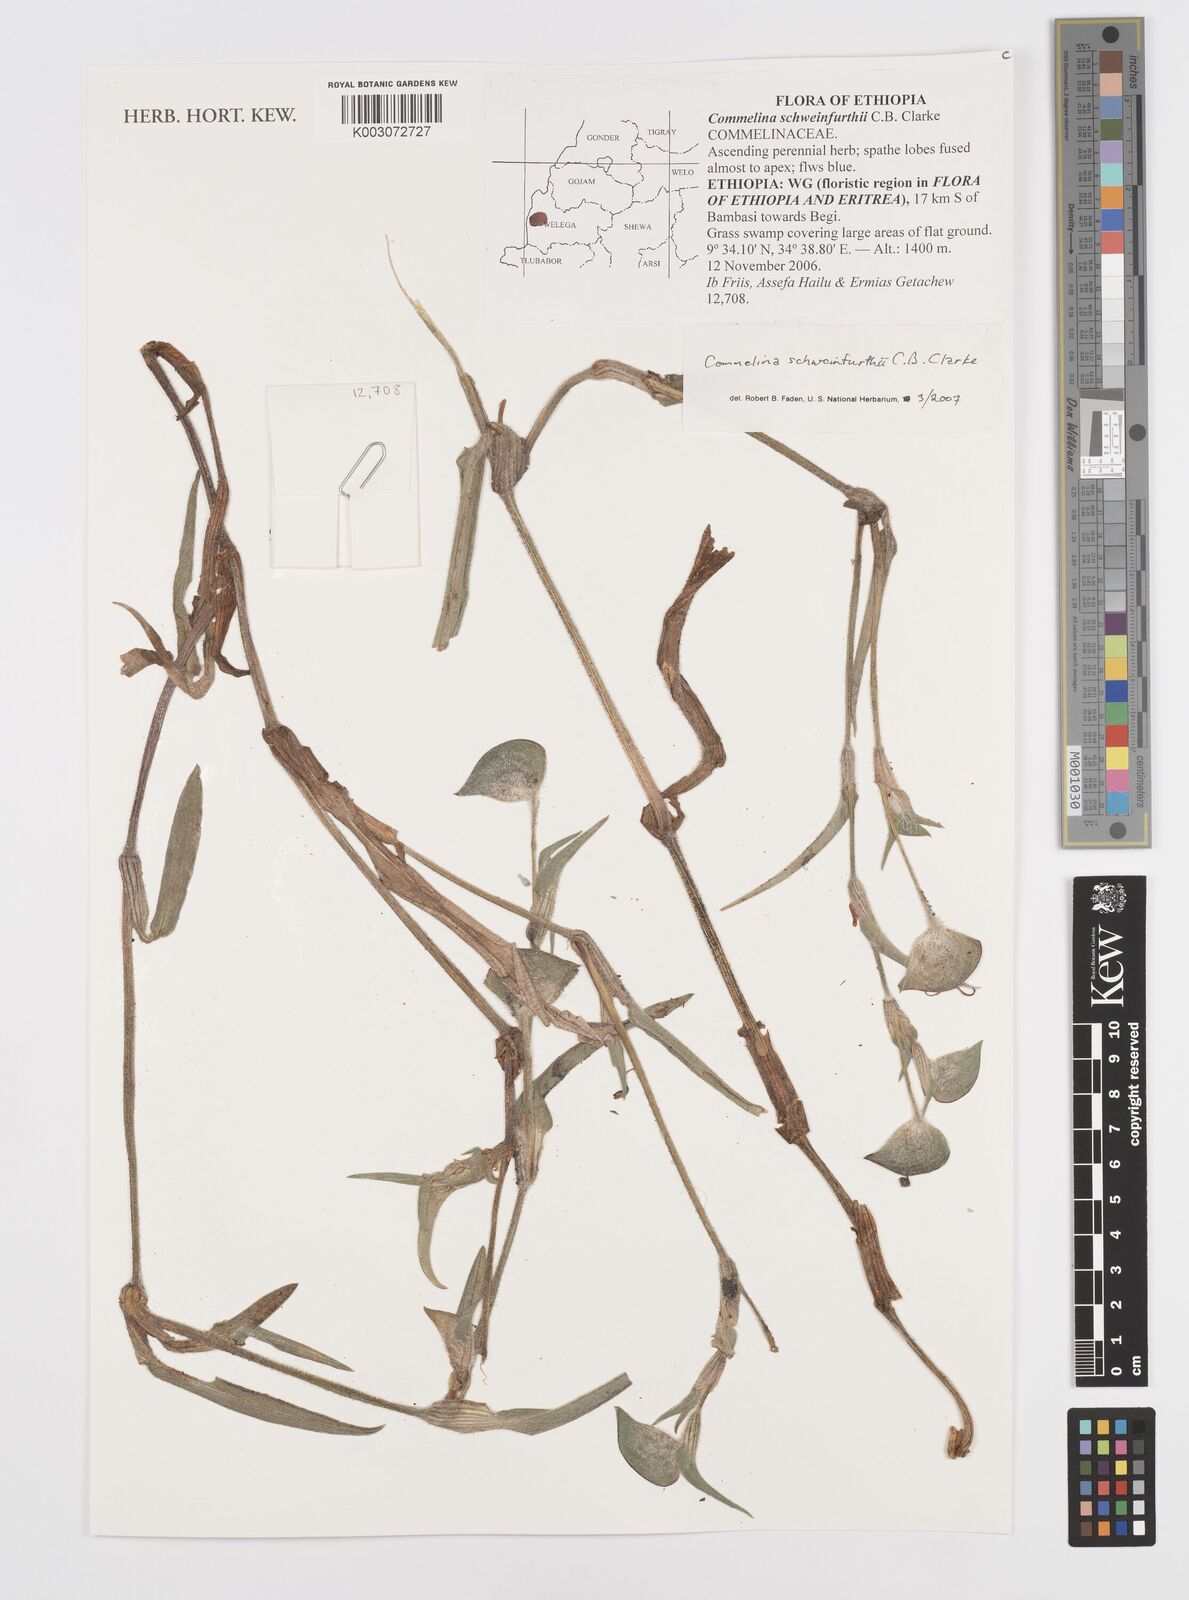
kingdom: Plantae
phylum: Tracheophyta
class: Liliopsida
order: Commelinales
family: Commelinaceae
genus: Commelina
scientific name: Commelina schweinfurthii
